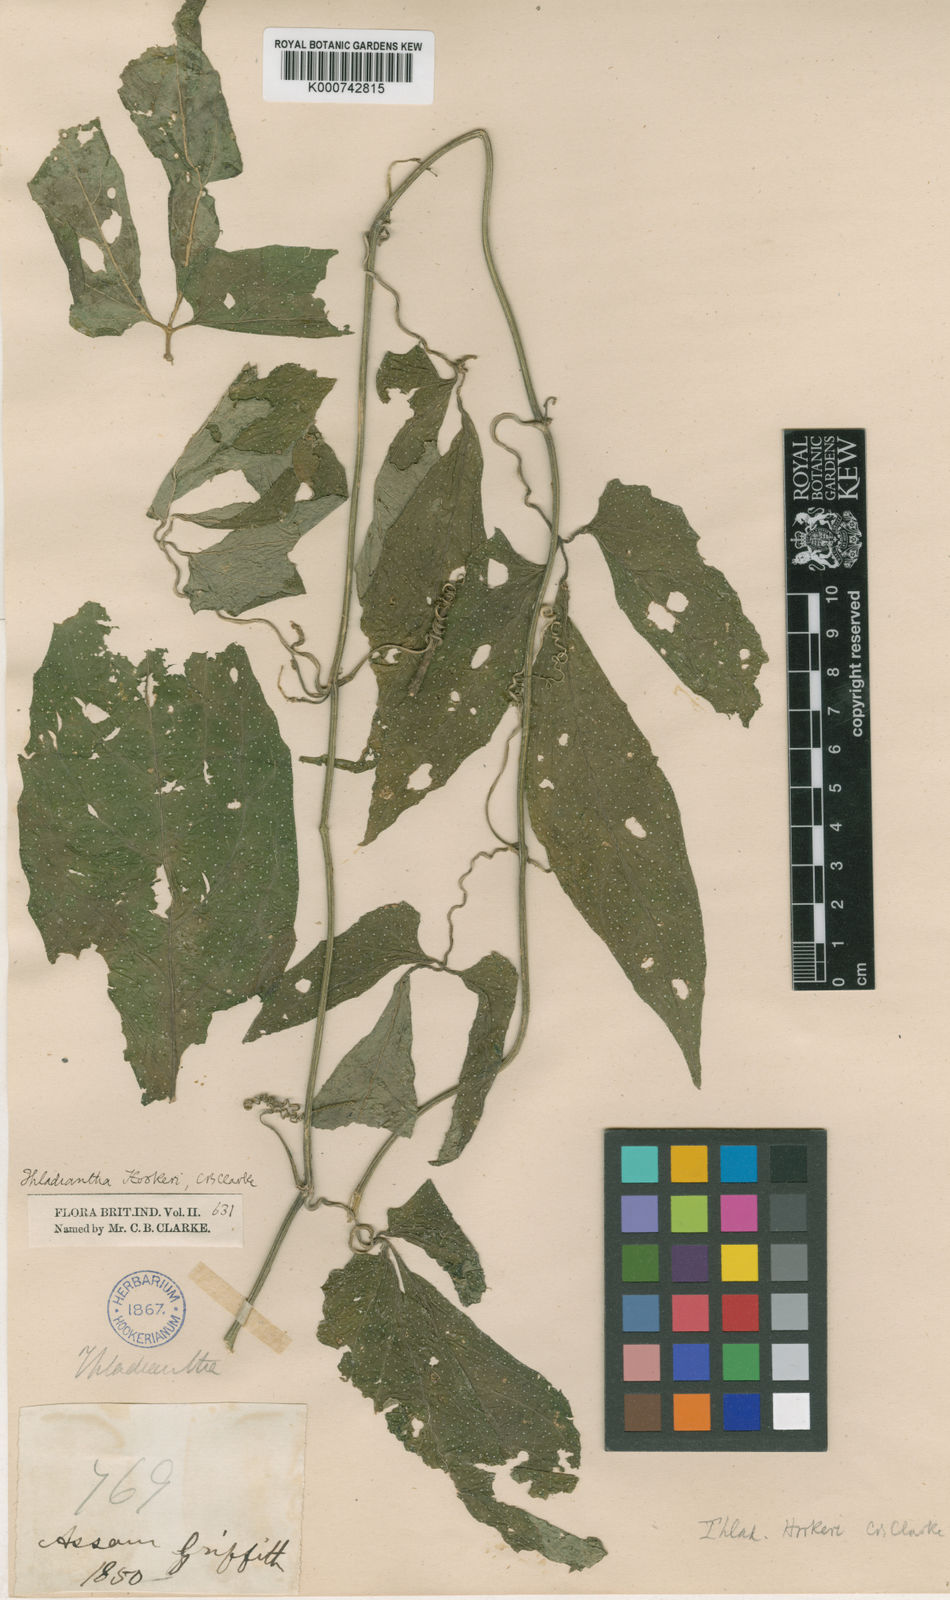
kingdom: Plantae
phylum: Tracheophyta
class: Magnoliopsida
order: Cucurbitales
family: Cucurbitaceae
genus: Thladiantha
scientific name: Thladiantha hookeri
